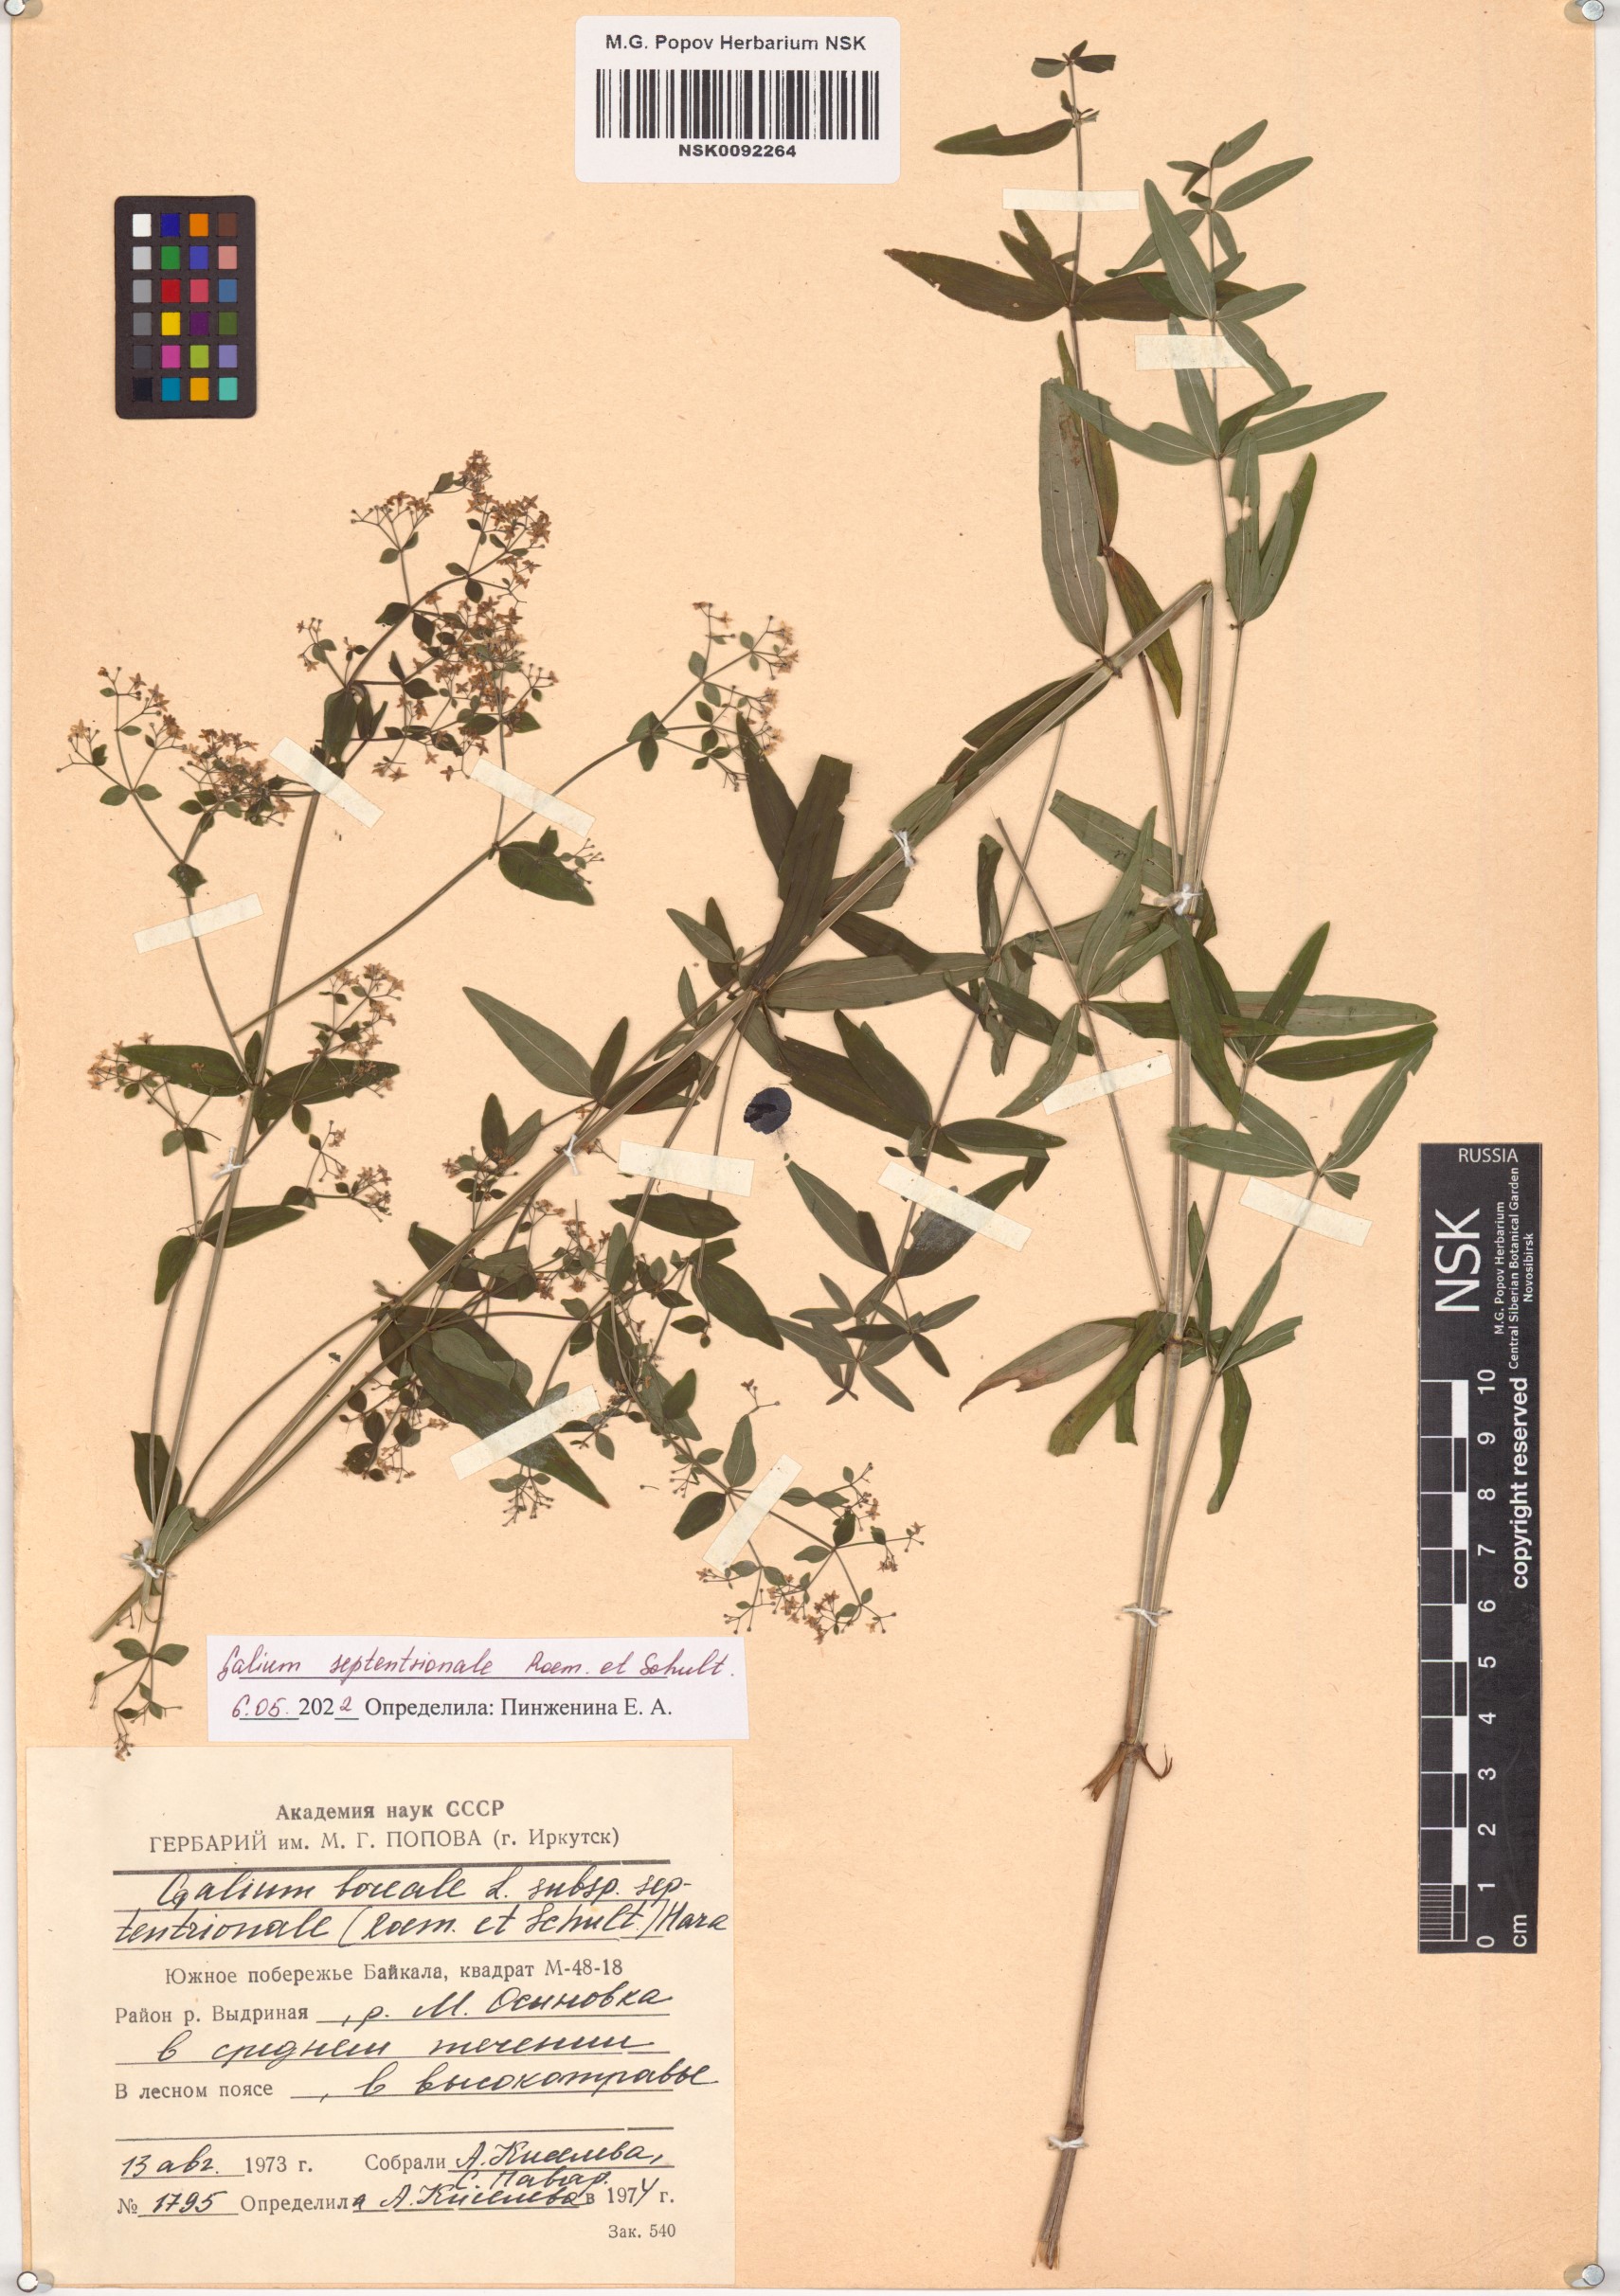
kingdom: Plantae
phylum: Tracheophyta
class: Magnoliopsida
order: Gentianales
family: Rubiaceae
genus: Galium
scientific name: Galium boreale
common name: Northern bedstraw
